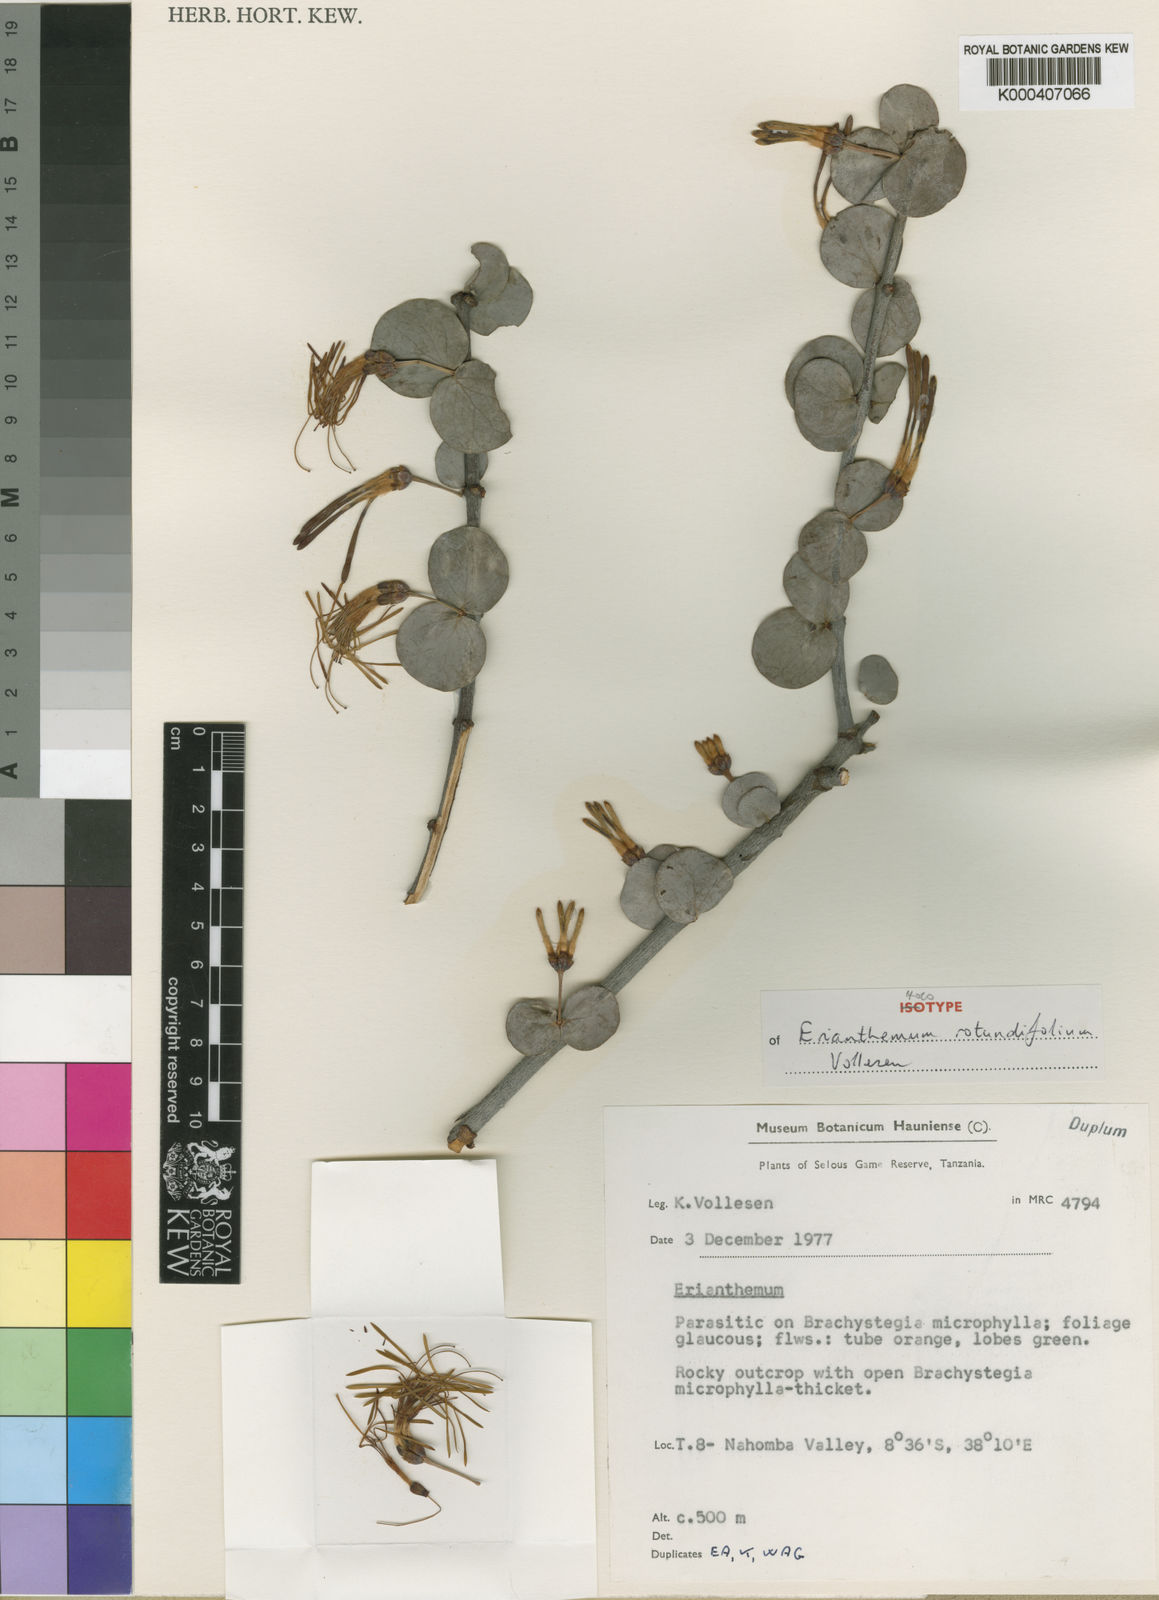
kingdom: Plantae
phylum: Tracheophyta
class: Magnoliopsida
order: Santalales
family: Loranthaceae
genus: Erianthemum
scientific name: Erianthemum rotundifolium
